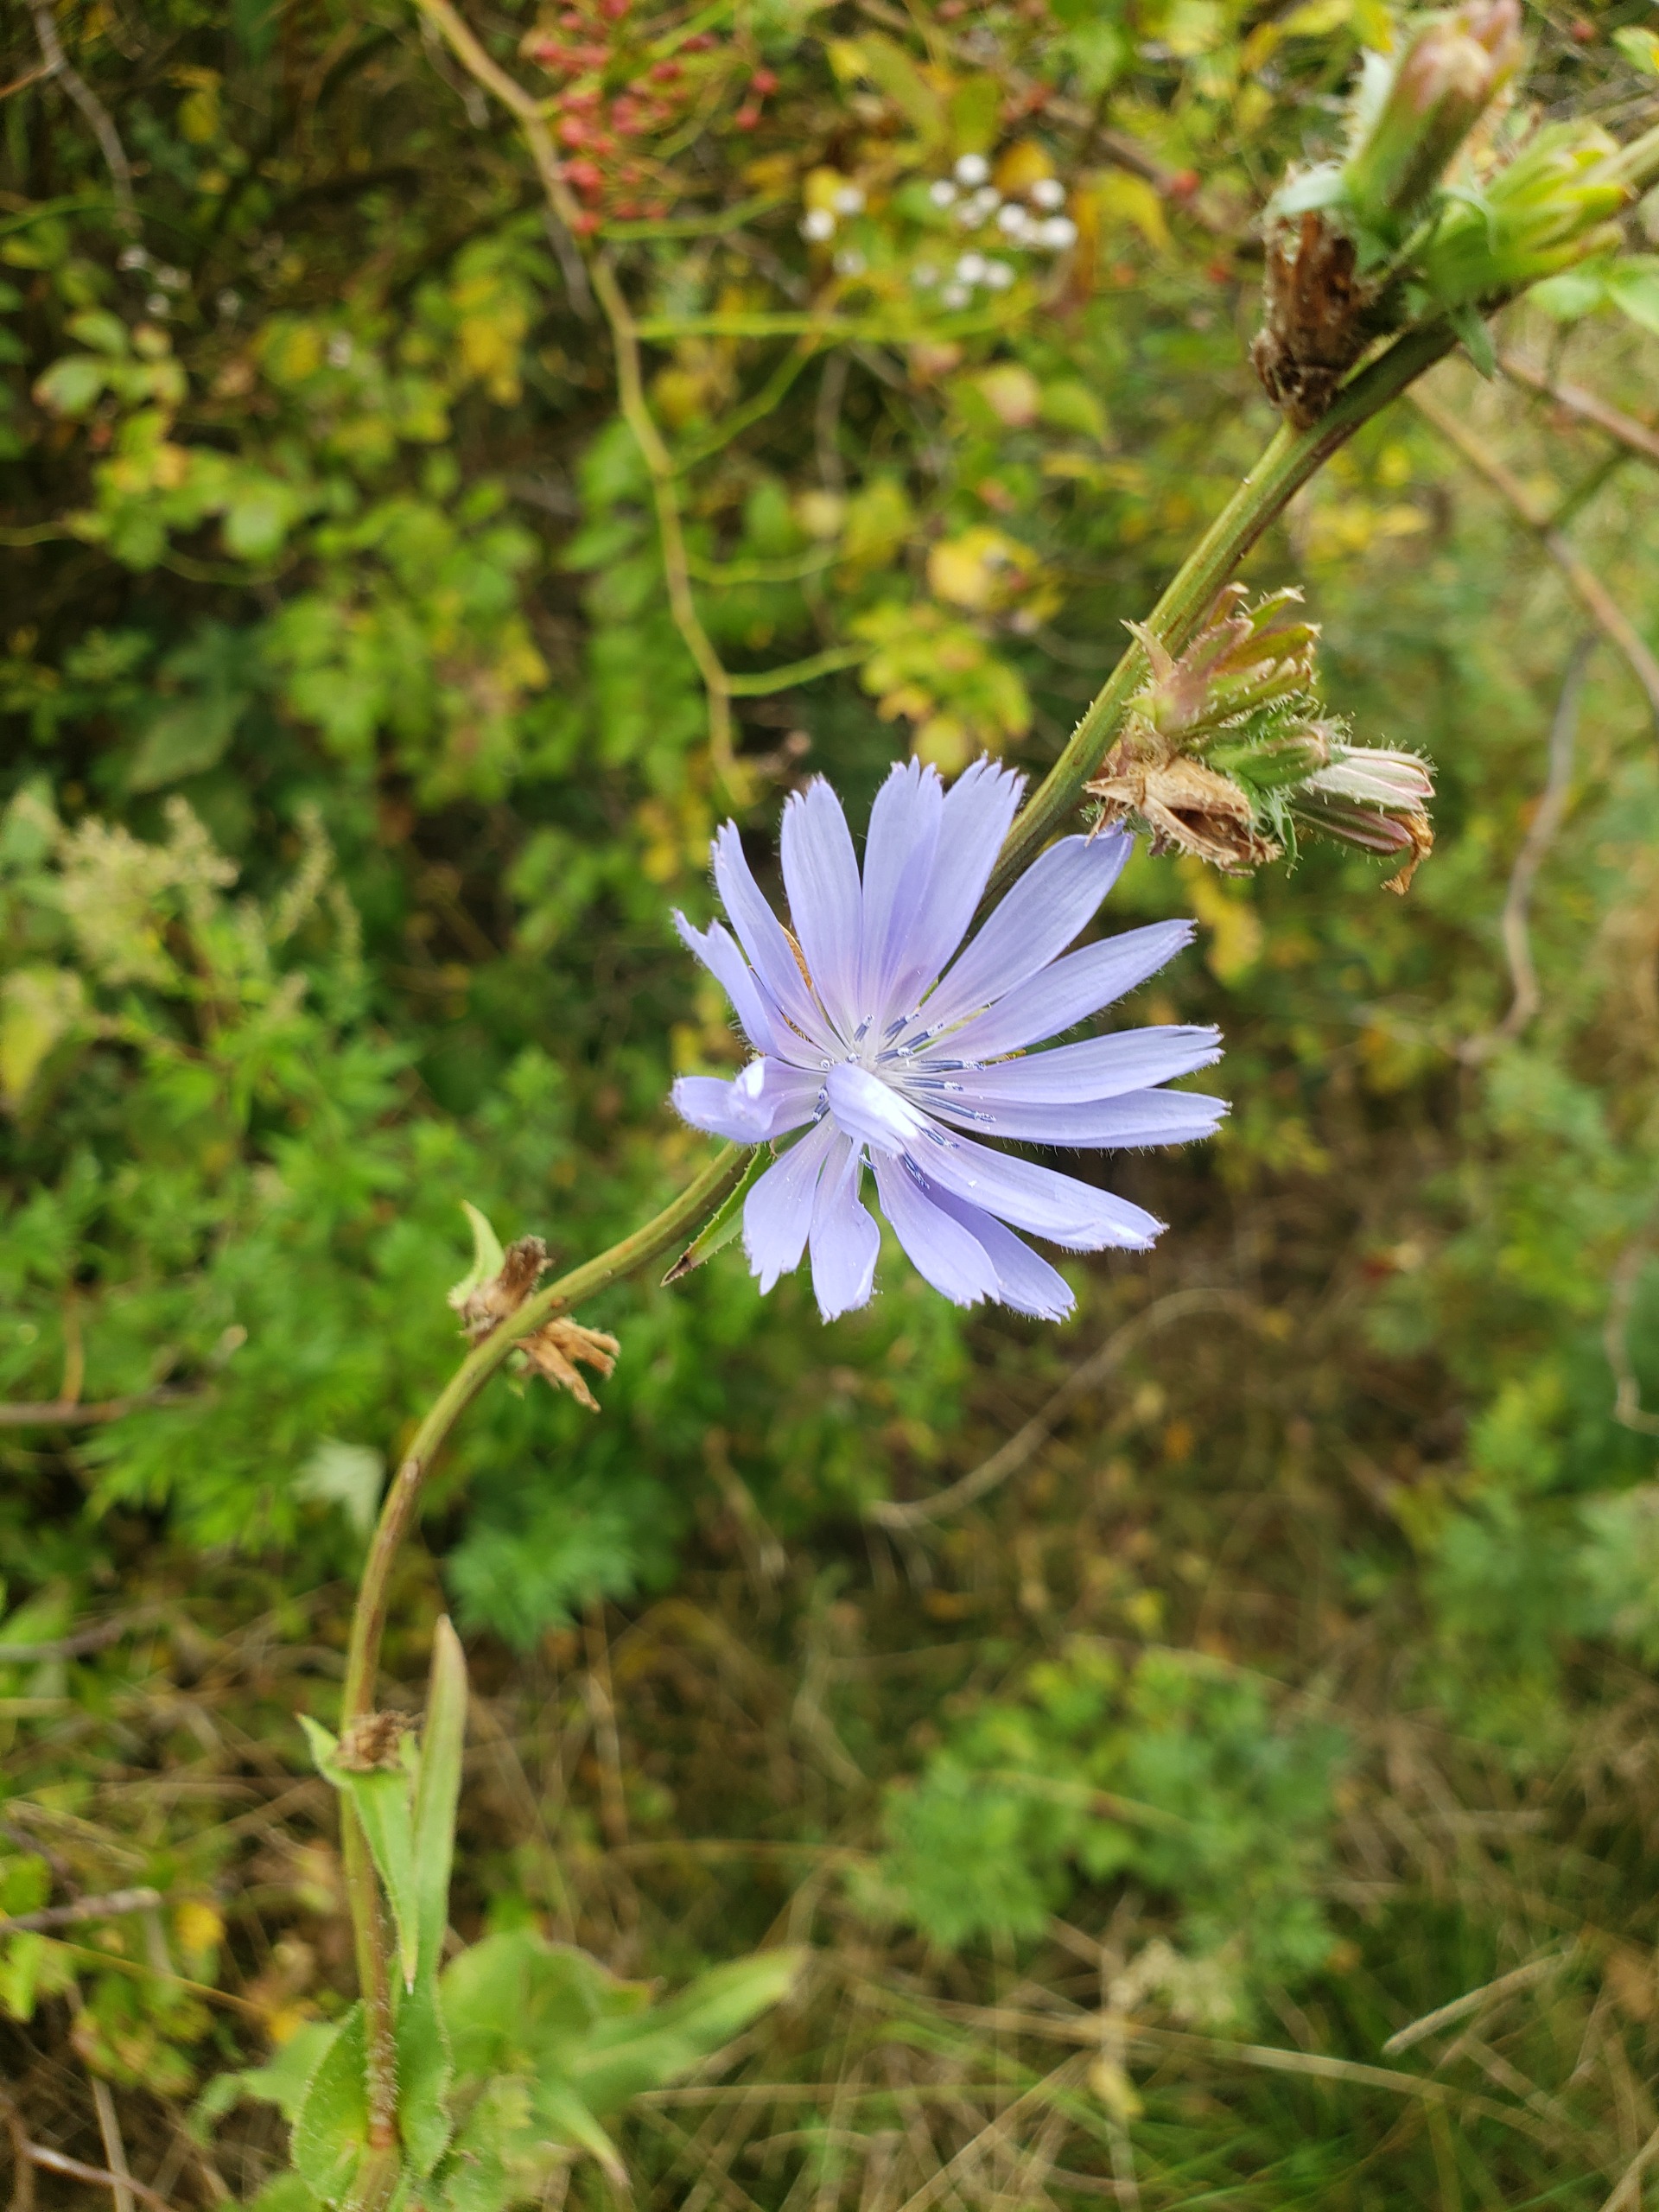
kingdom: Plantae
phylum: Tracheophyta
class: Magnoliopsida
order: Asterales
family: Asteraceae
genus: Cichorium
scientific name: Cichorium intybus
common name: Cikorie
